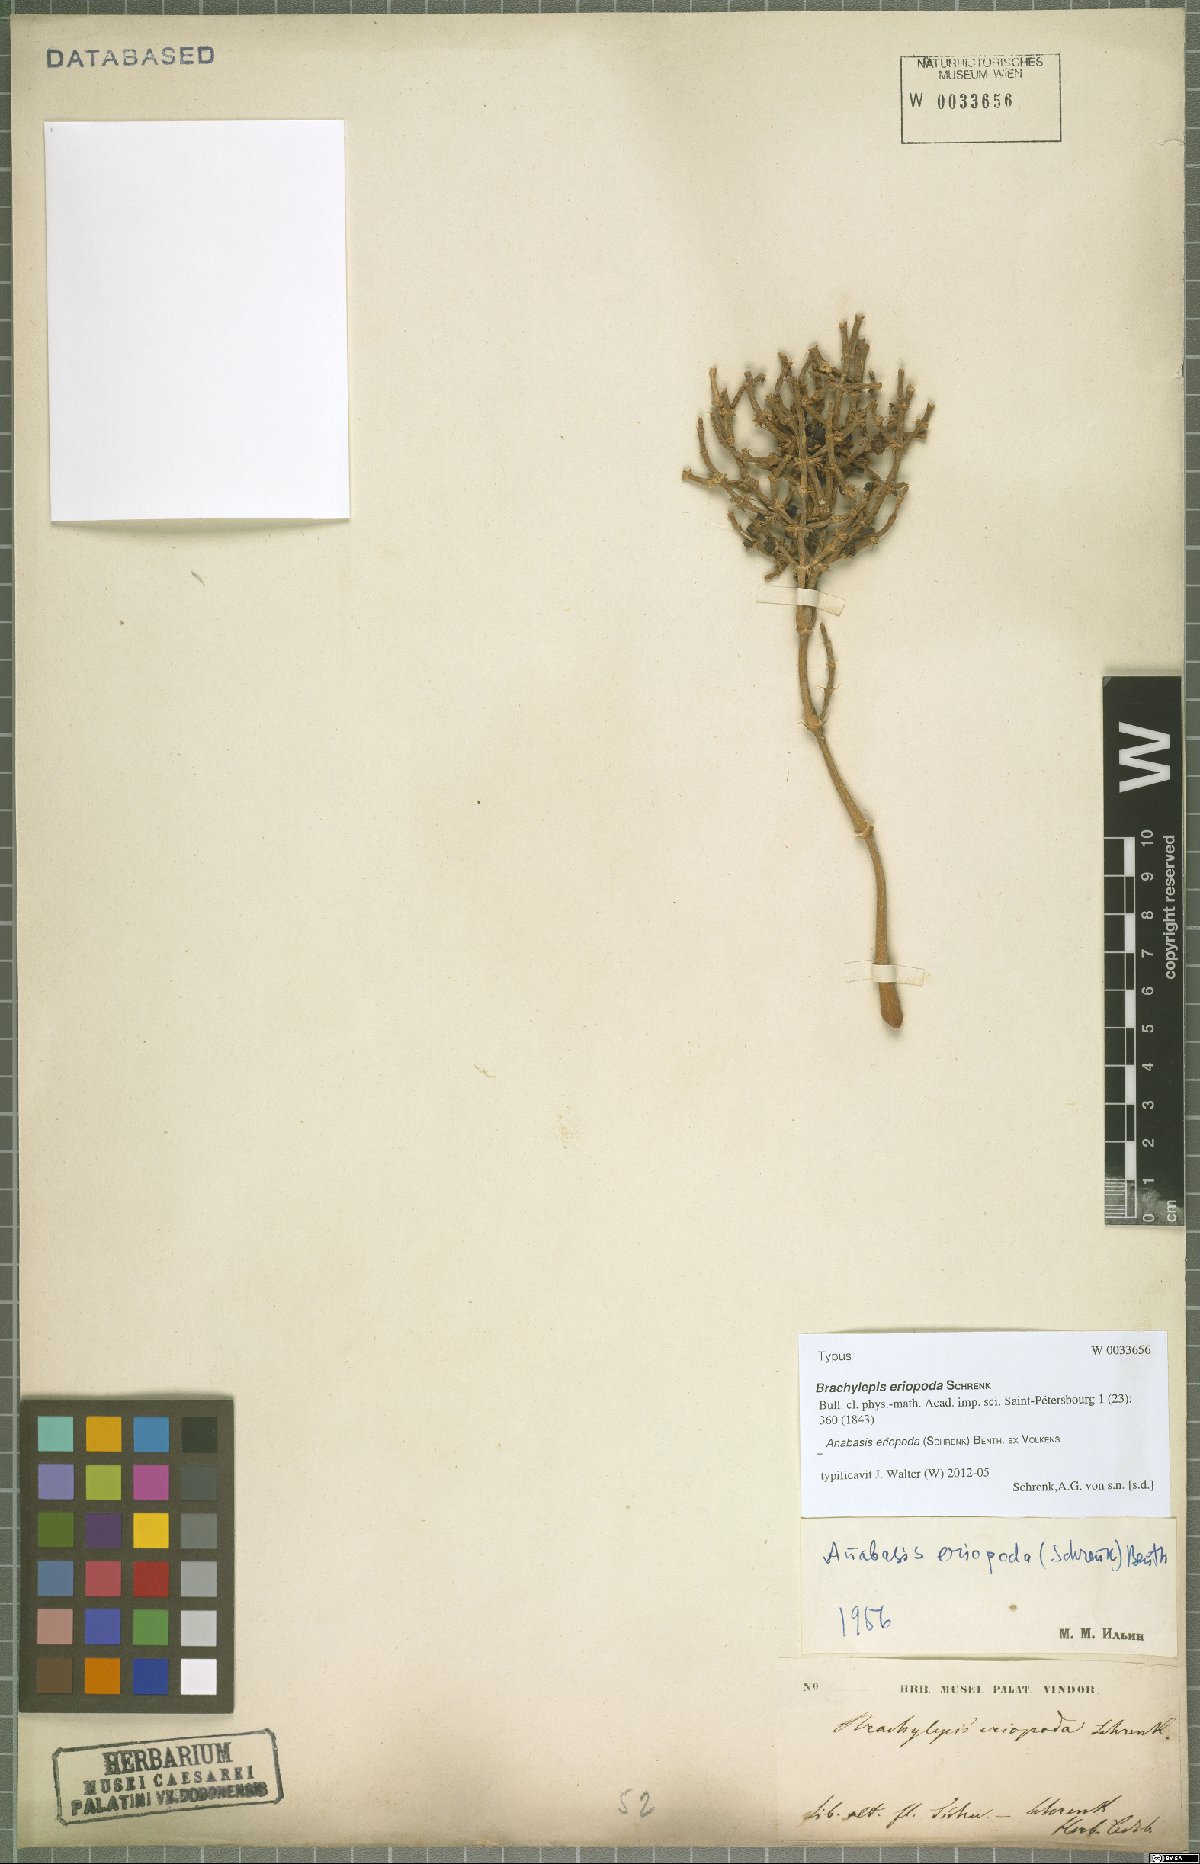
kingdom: Plantae
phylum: Tracheophyta
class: Magnoliopsida
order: Caryophyllales
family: Amaranthaceae
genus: Anabasis
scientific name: Anabasis eriopoda
